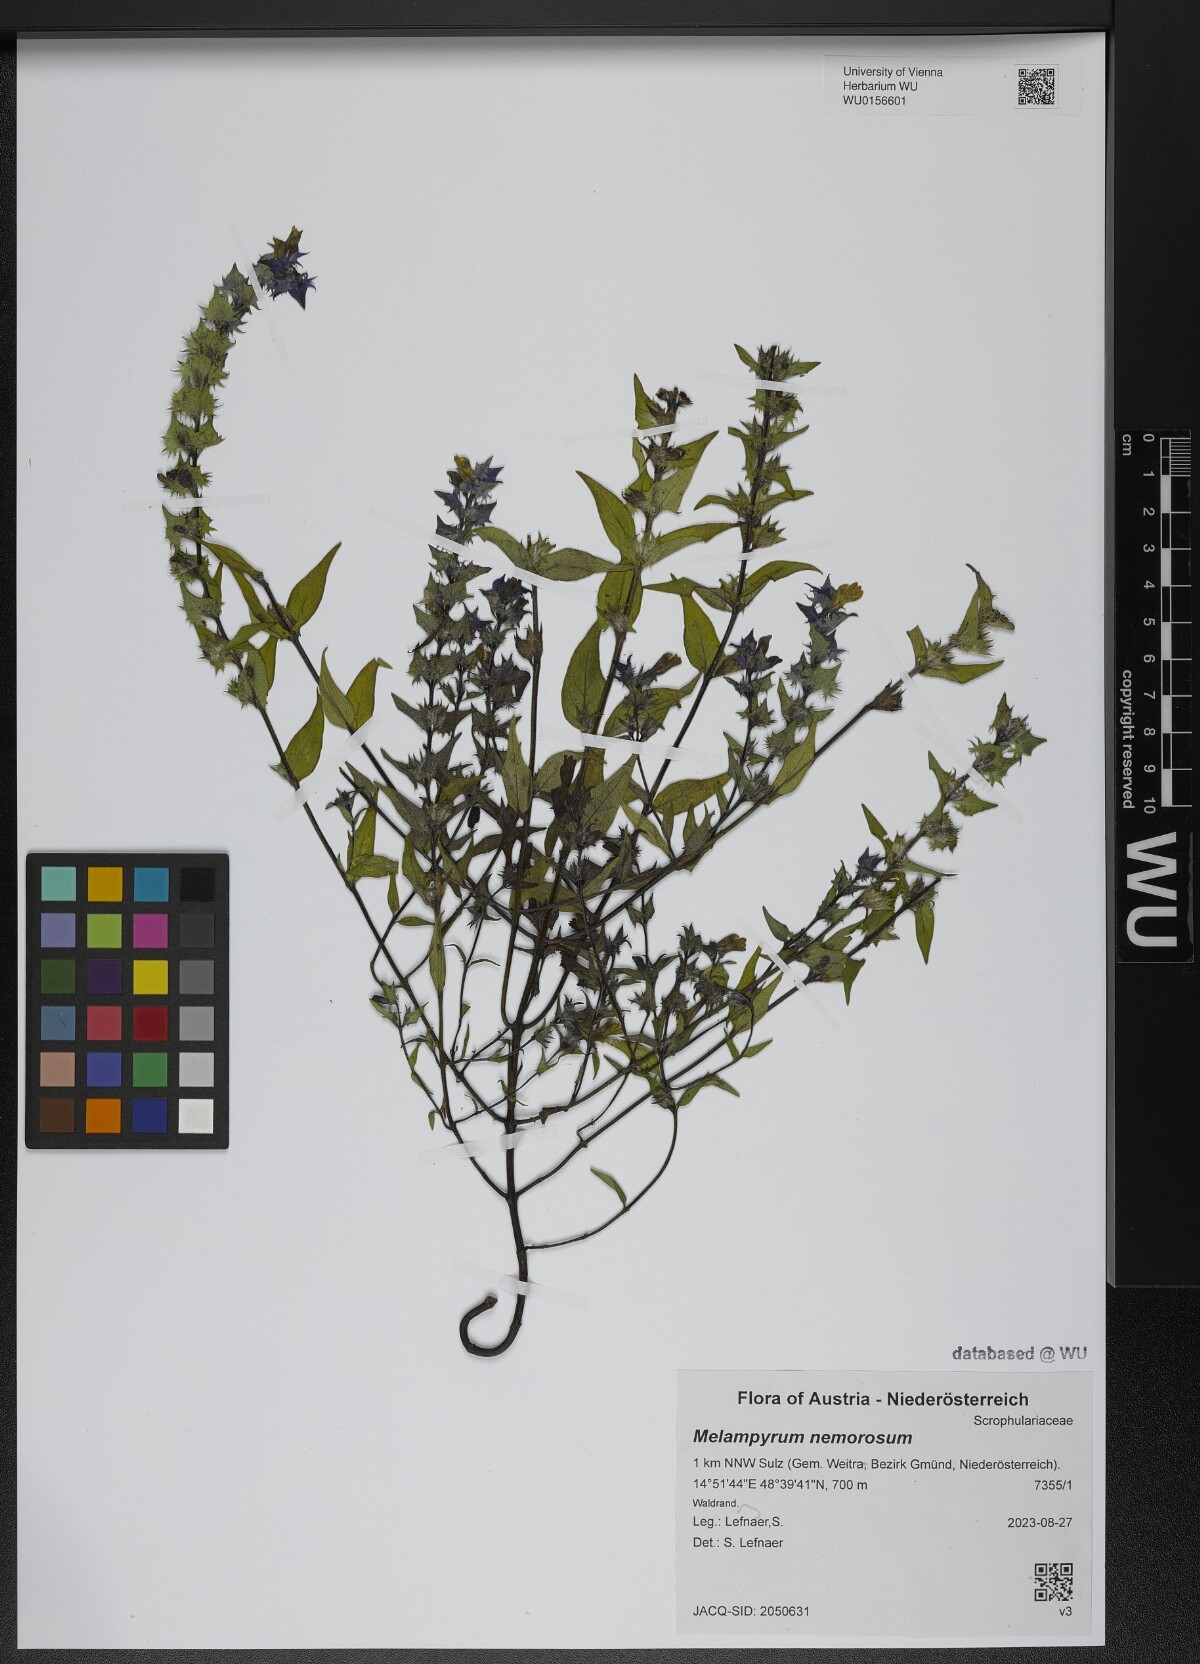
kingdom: Plantae
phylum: Tracheophyta
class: Magnoliopsida
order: Lamiales
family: Orobanchaceae
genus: Melampyrum
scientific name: Melampyrum nemorosum
